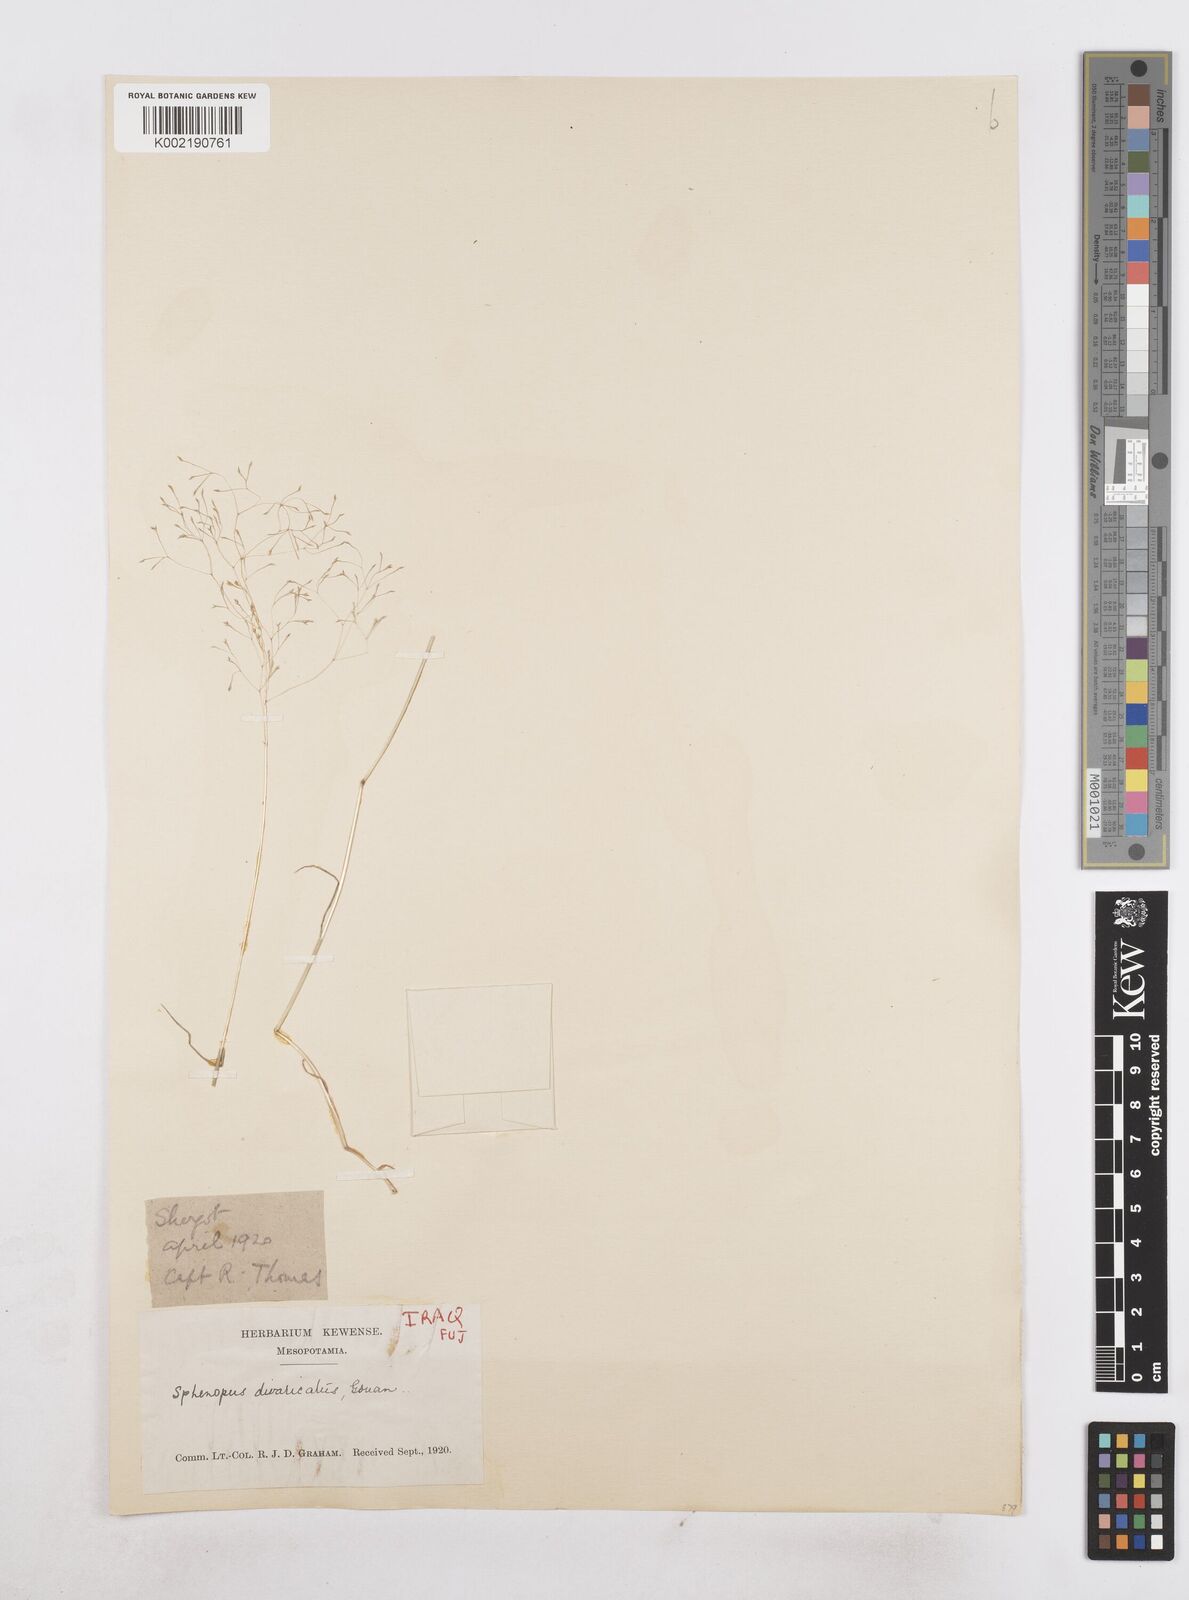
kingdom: Plantae
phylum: Tracheophyta
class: Liliopsida
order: Poales
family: Poaceae
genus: Sphenopus
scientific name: Sphenopus divaricatus
